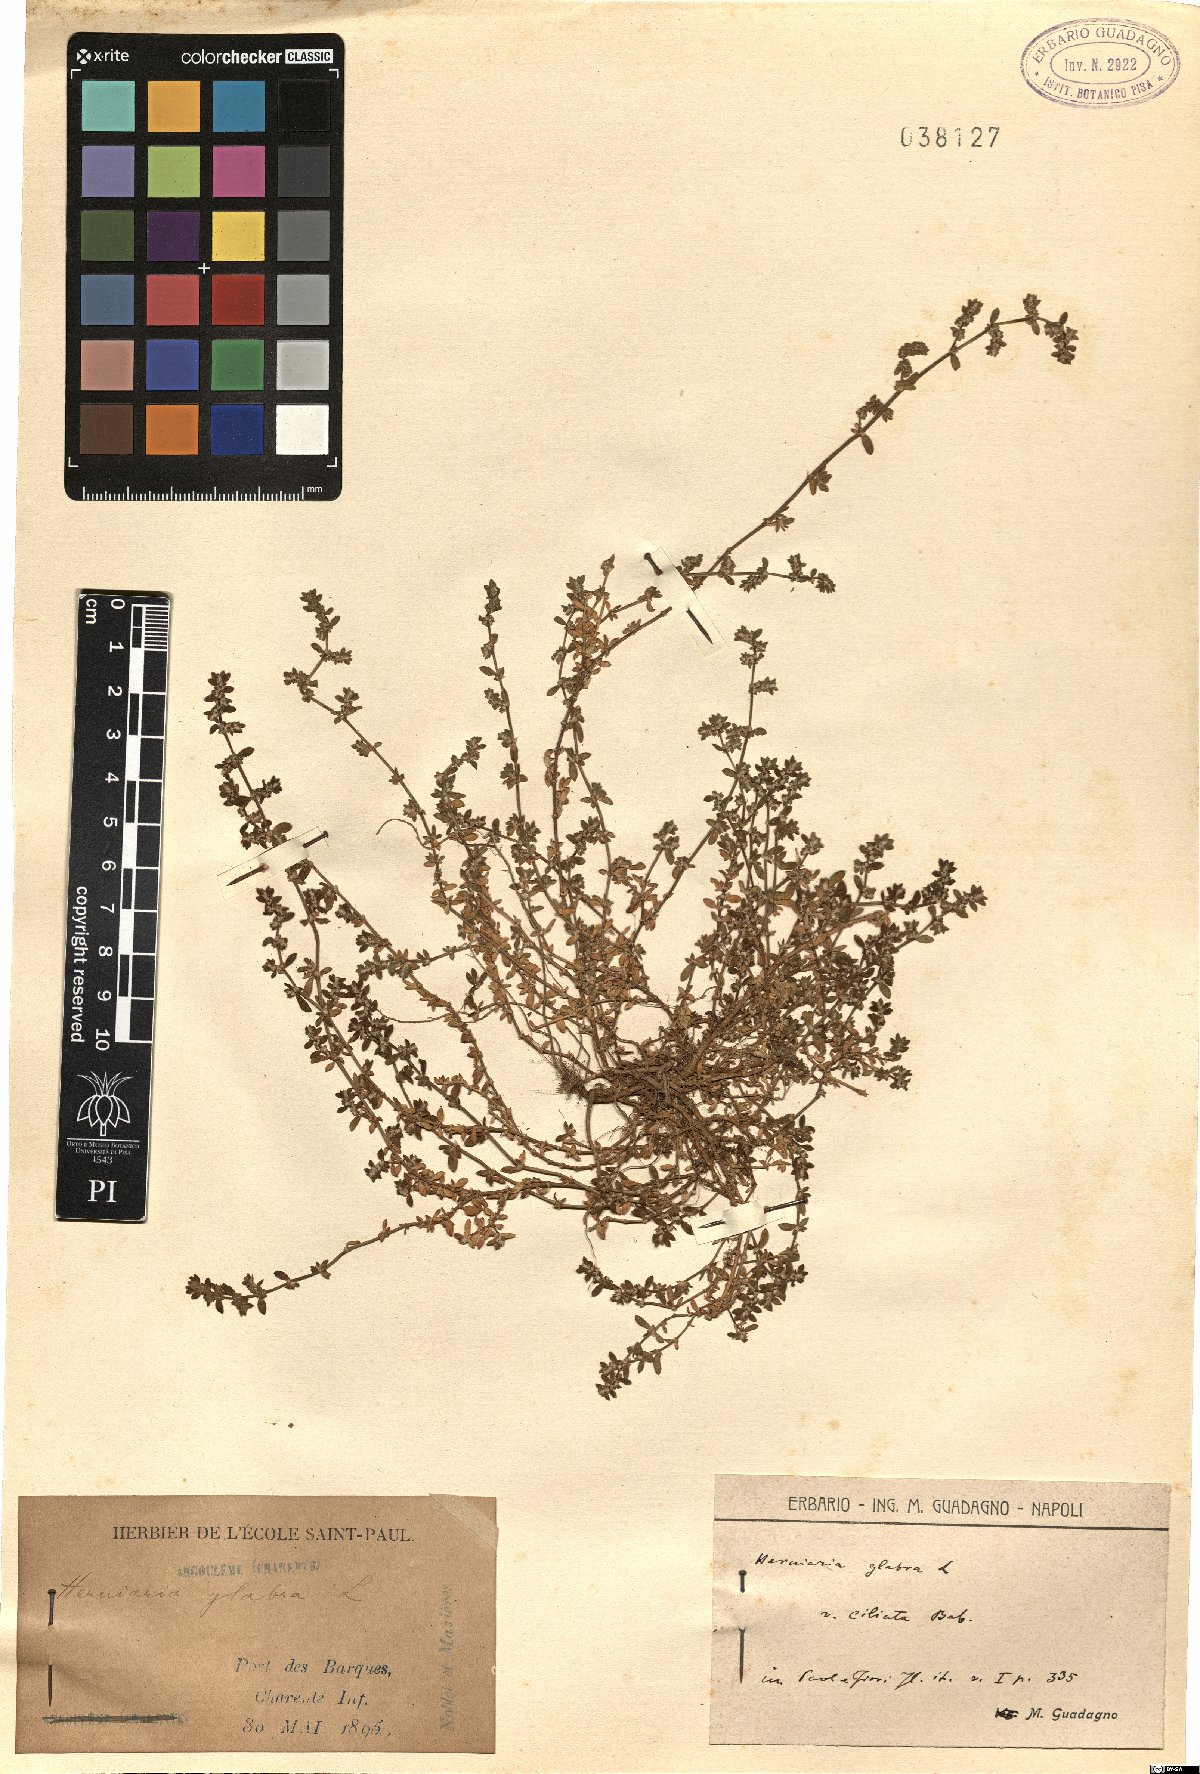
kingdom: Plantae
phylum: Tracheophyta
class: Magnoliopsida
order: Caryophyllales
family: Caryophyllaceae
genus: Herniaria
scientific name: Herniaria glabra
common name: Smooth rupturewort
